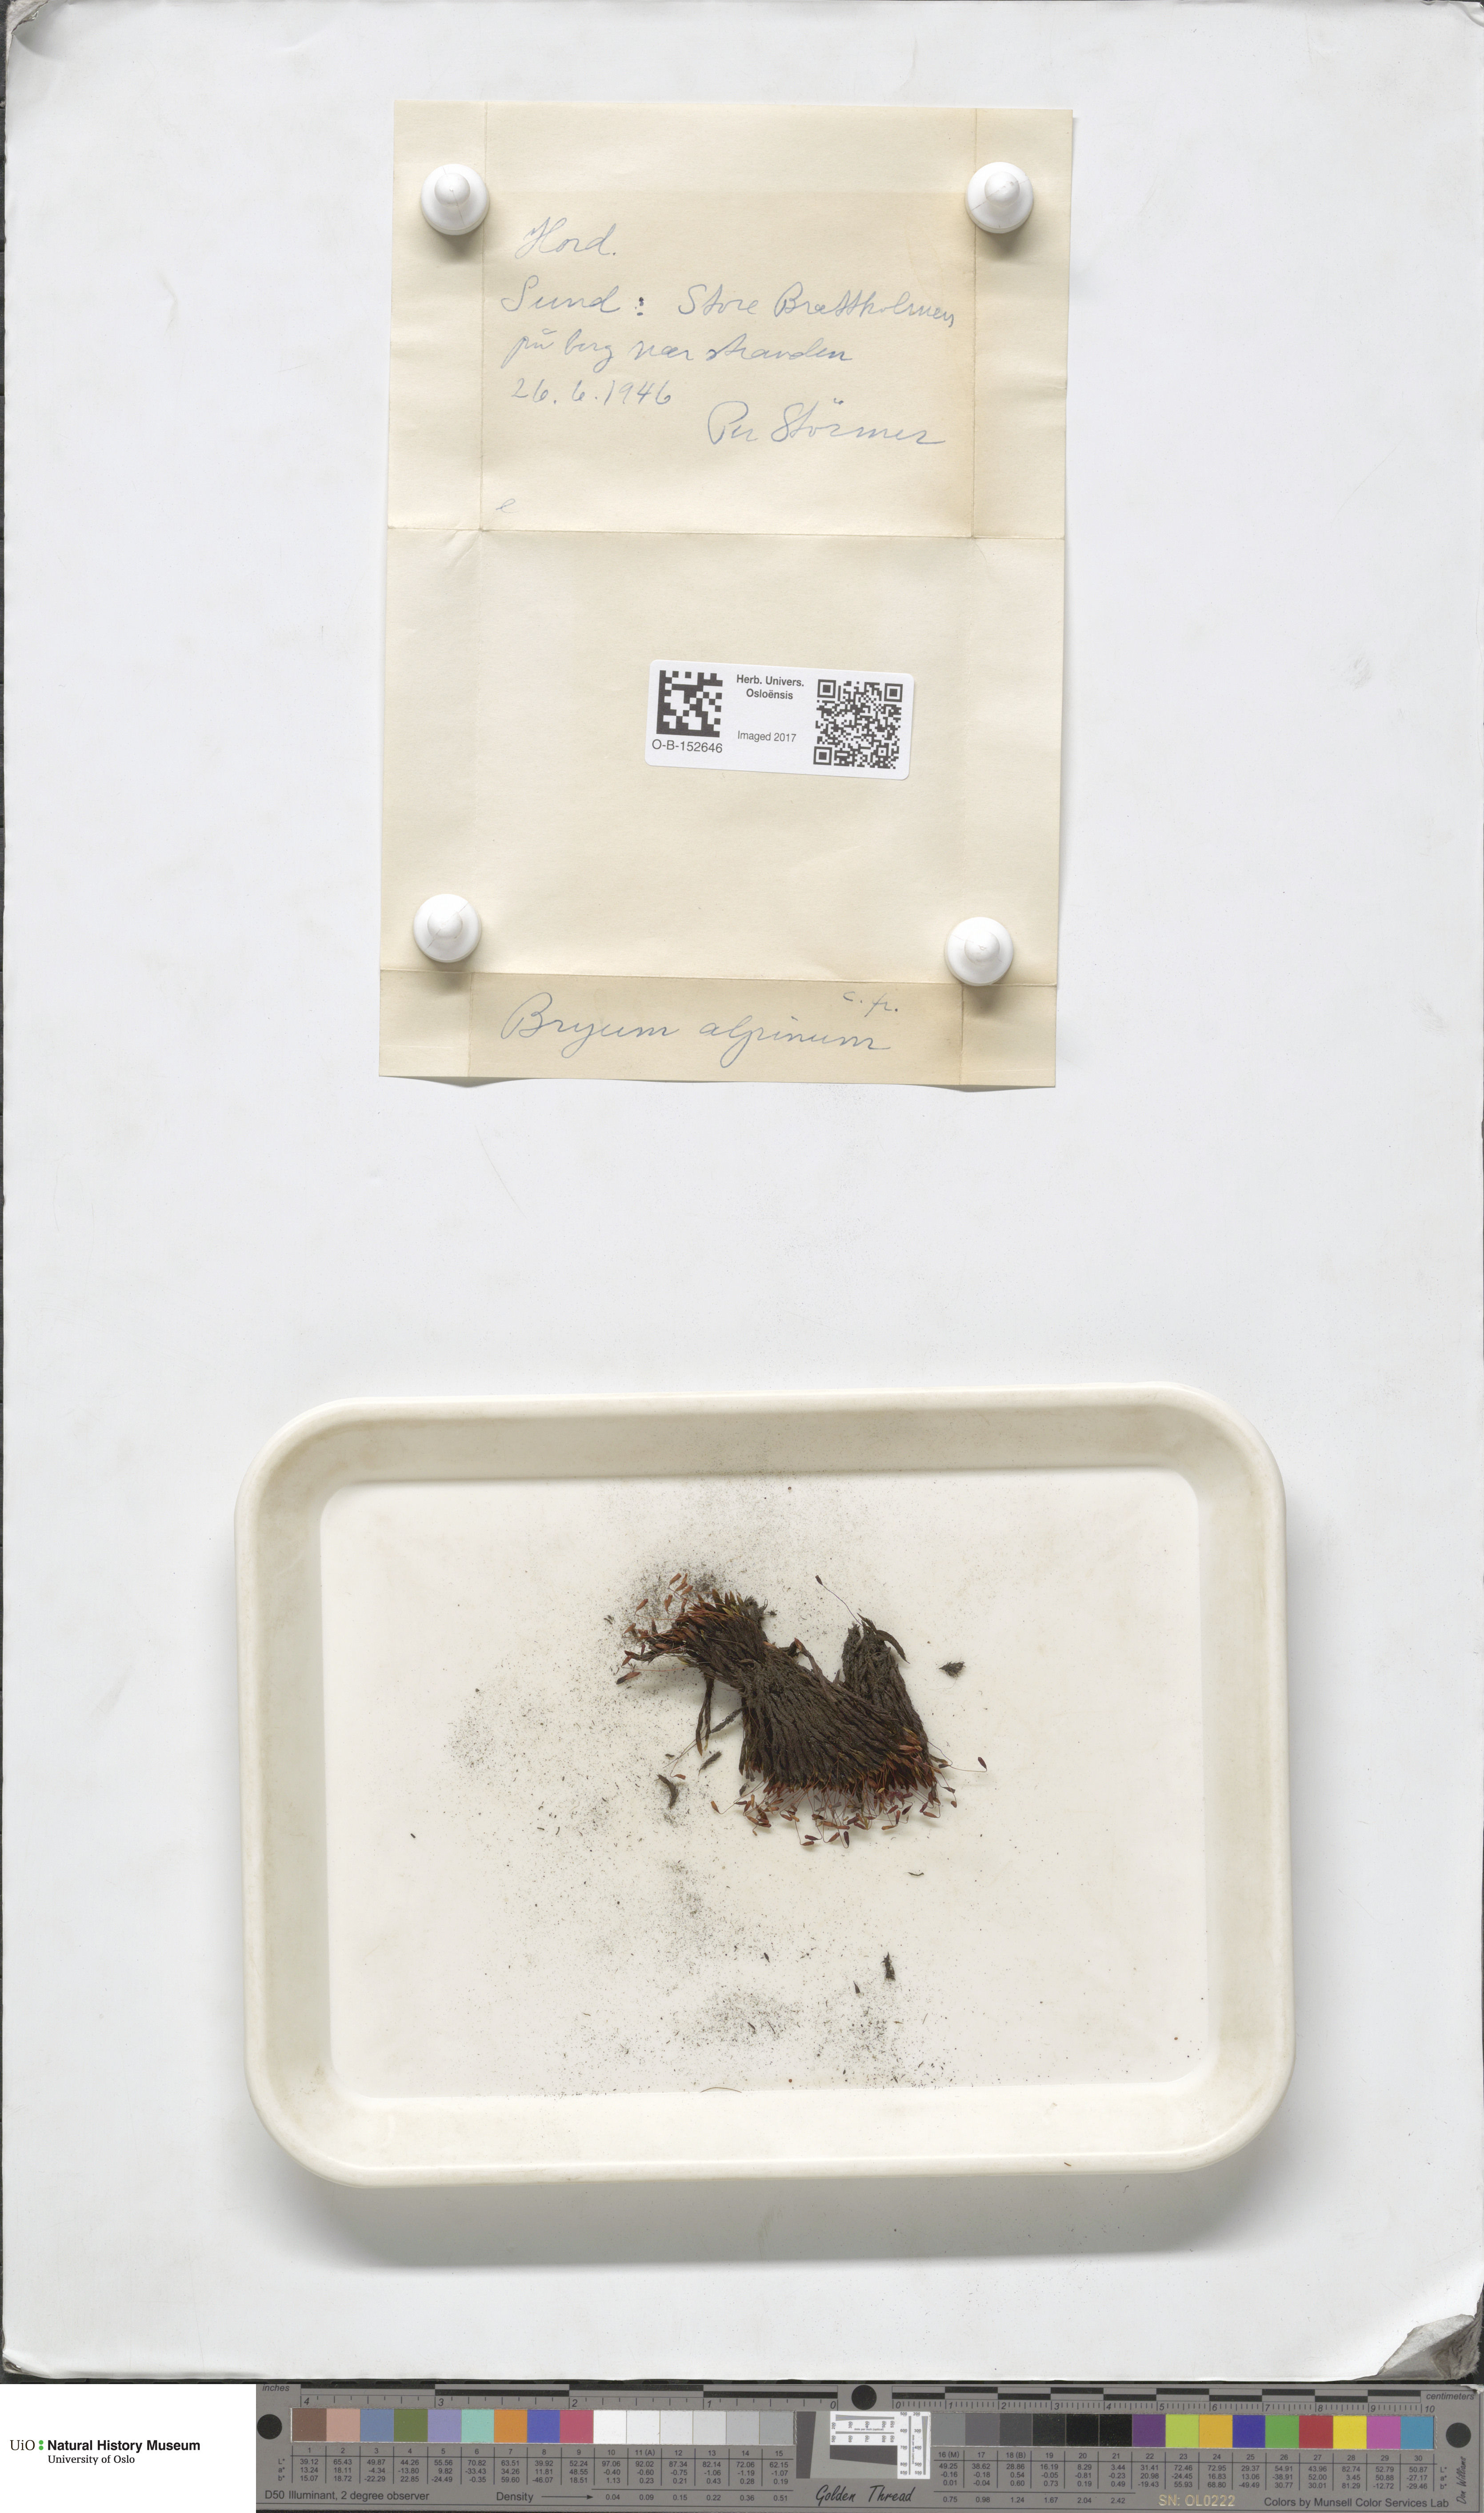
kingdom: Plantae
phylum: Bryophyta
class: Bryopsida
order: Bryales
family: Bryaceae
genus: Imbribryum
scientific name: Imbribryum alpinum
